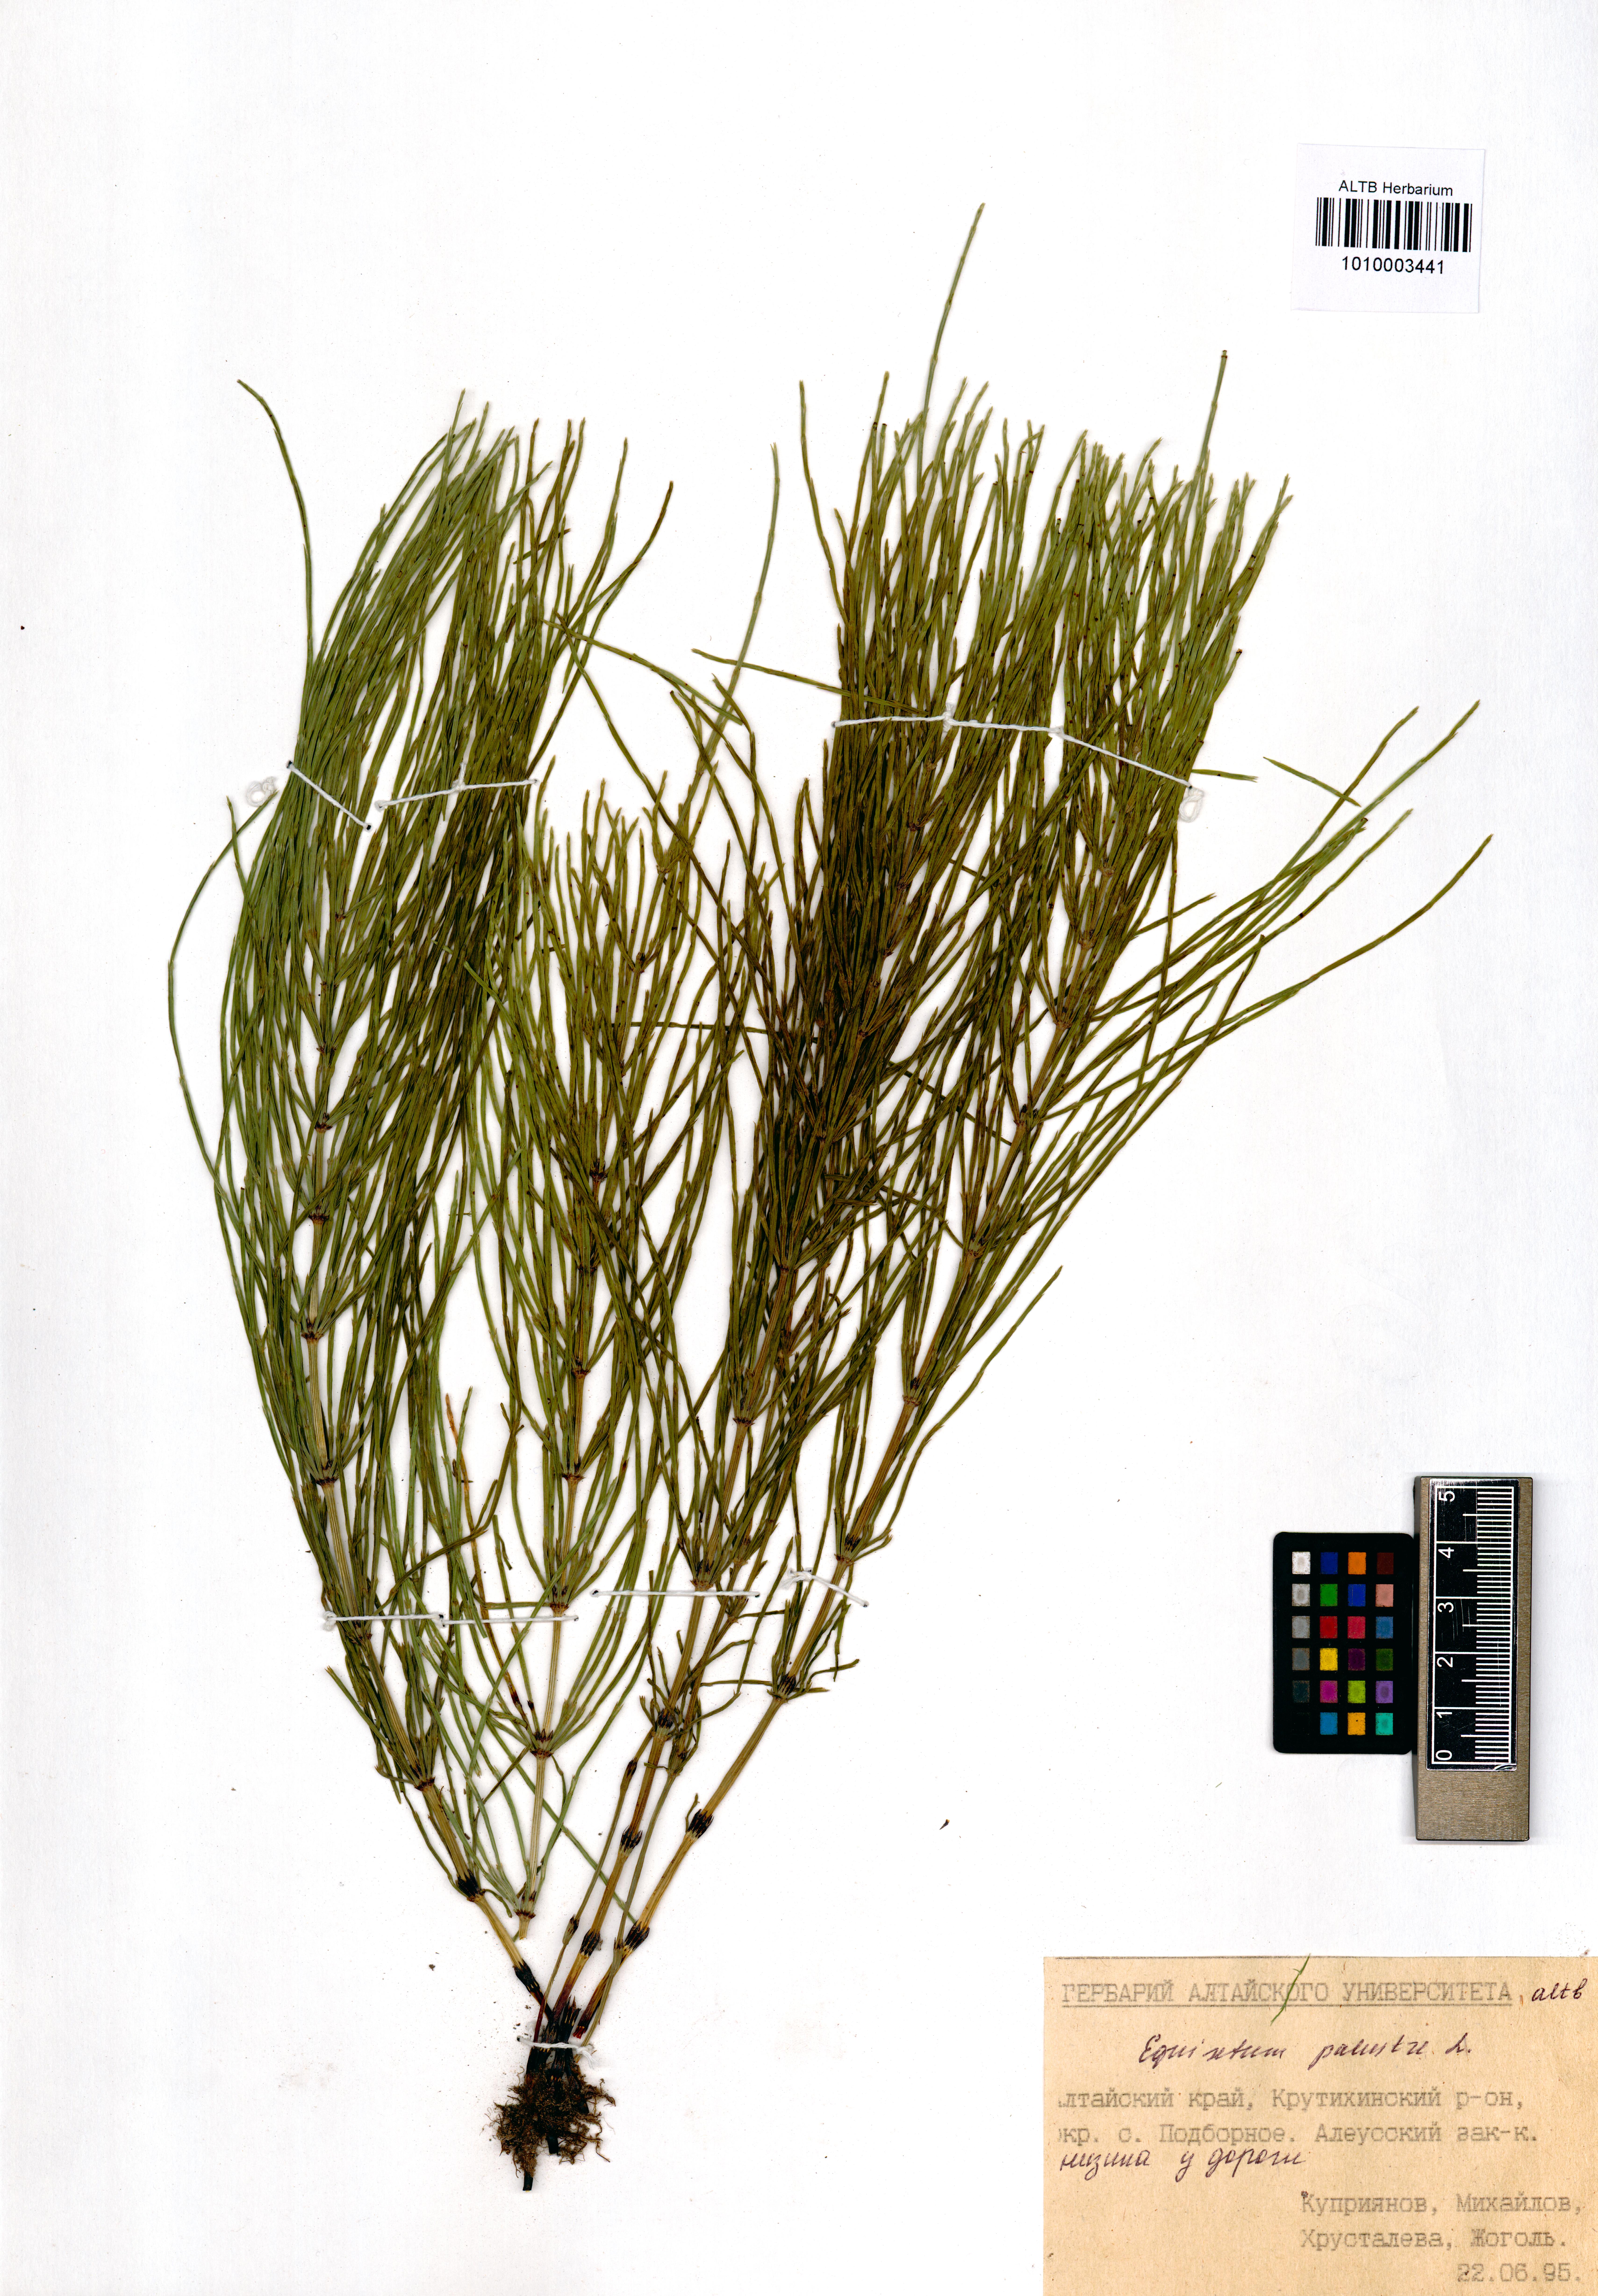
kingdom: Plantae
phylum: Tracheophyta
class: Polypodiopsida
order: Equisetales
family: Equisetaceae
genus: Equisetum
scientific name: Equisetum palustre
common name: Marsh horsetail
